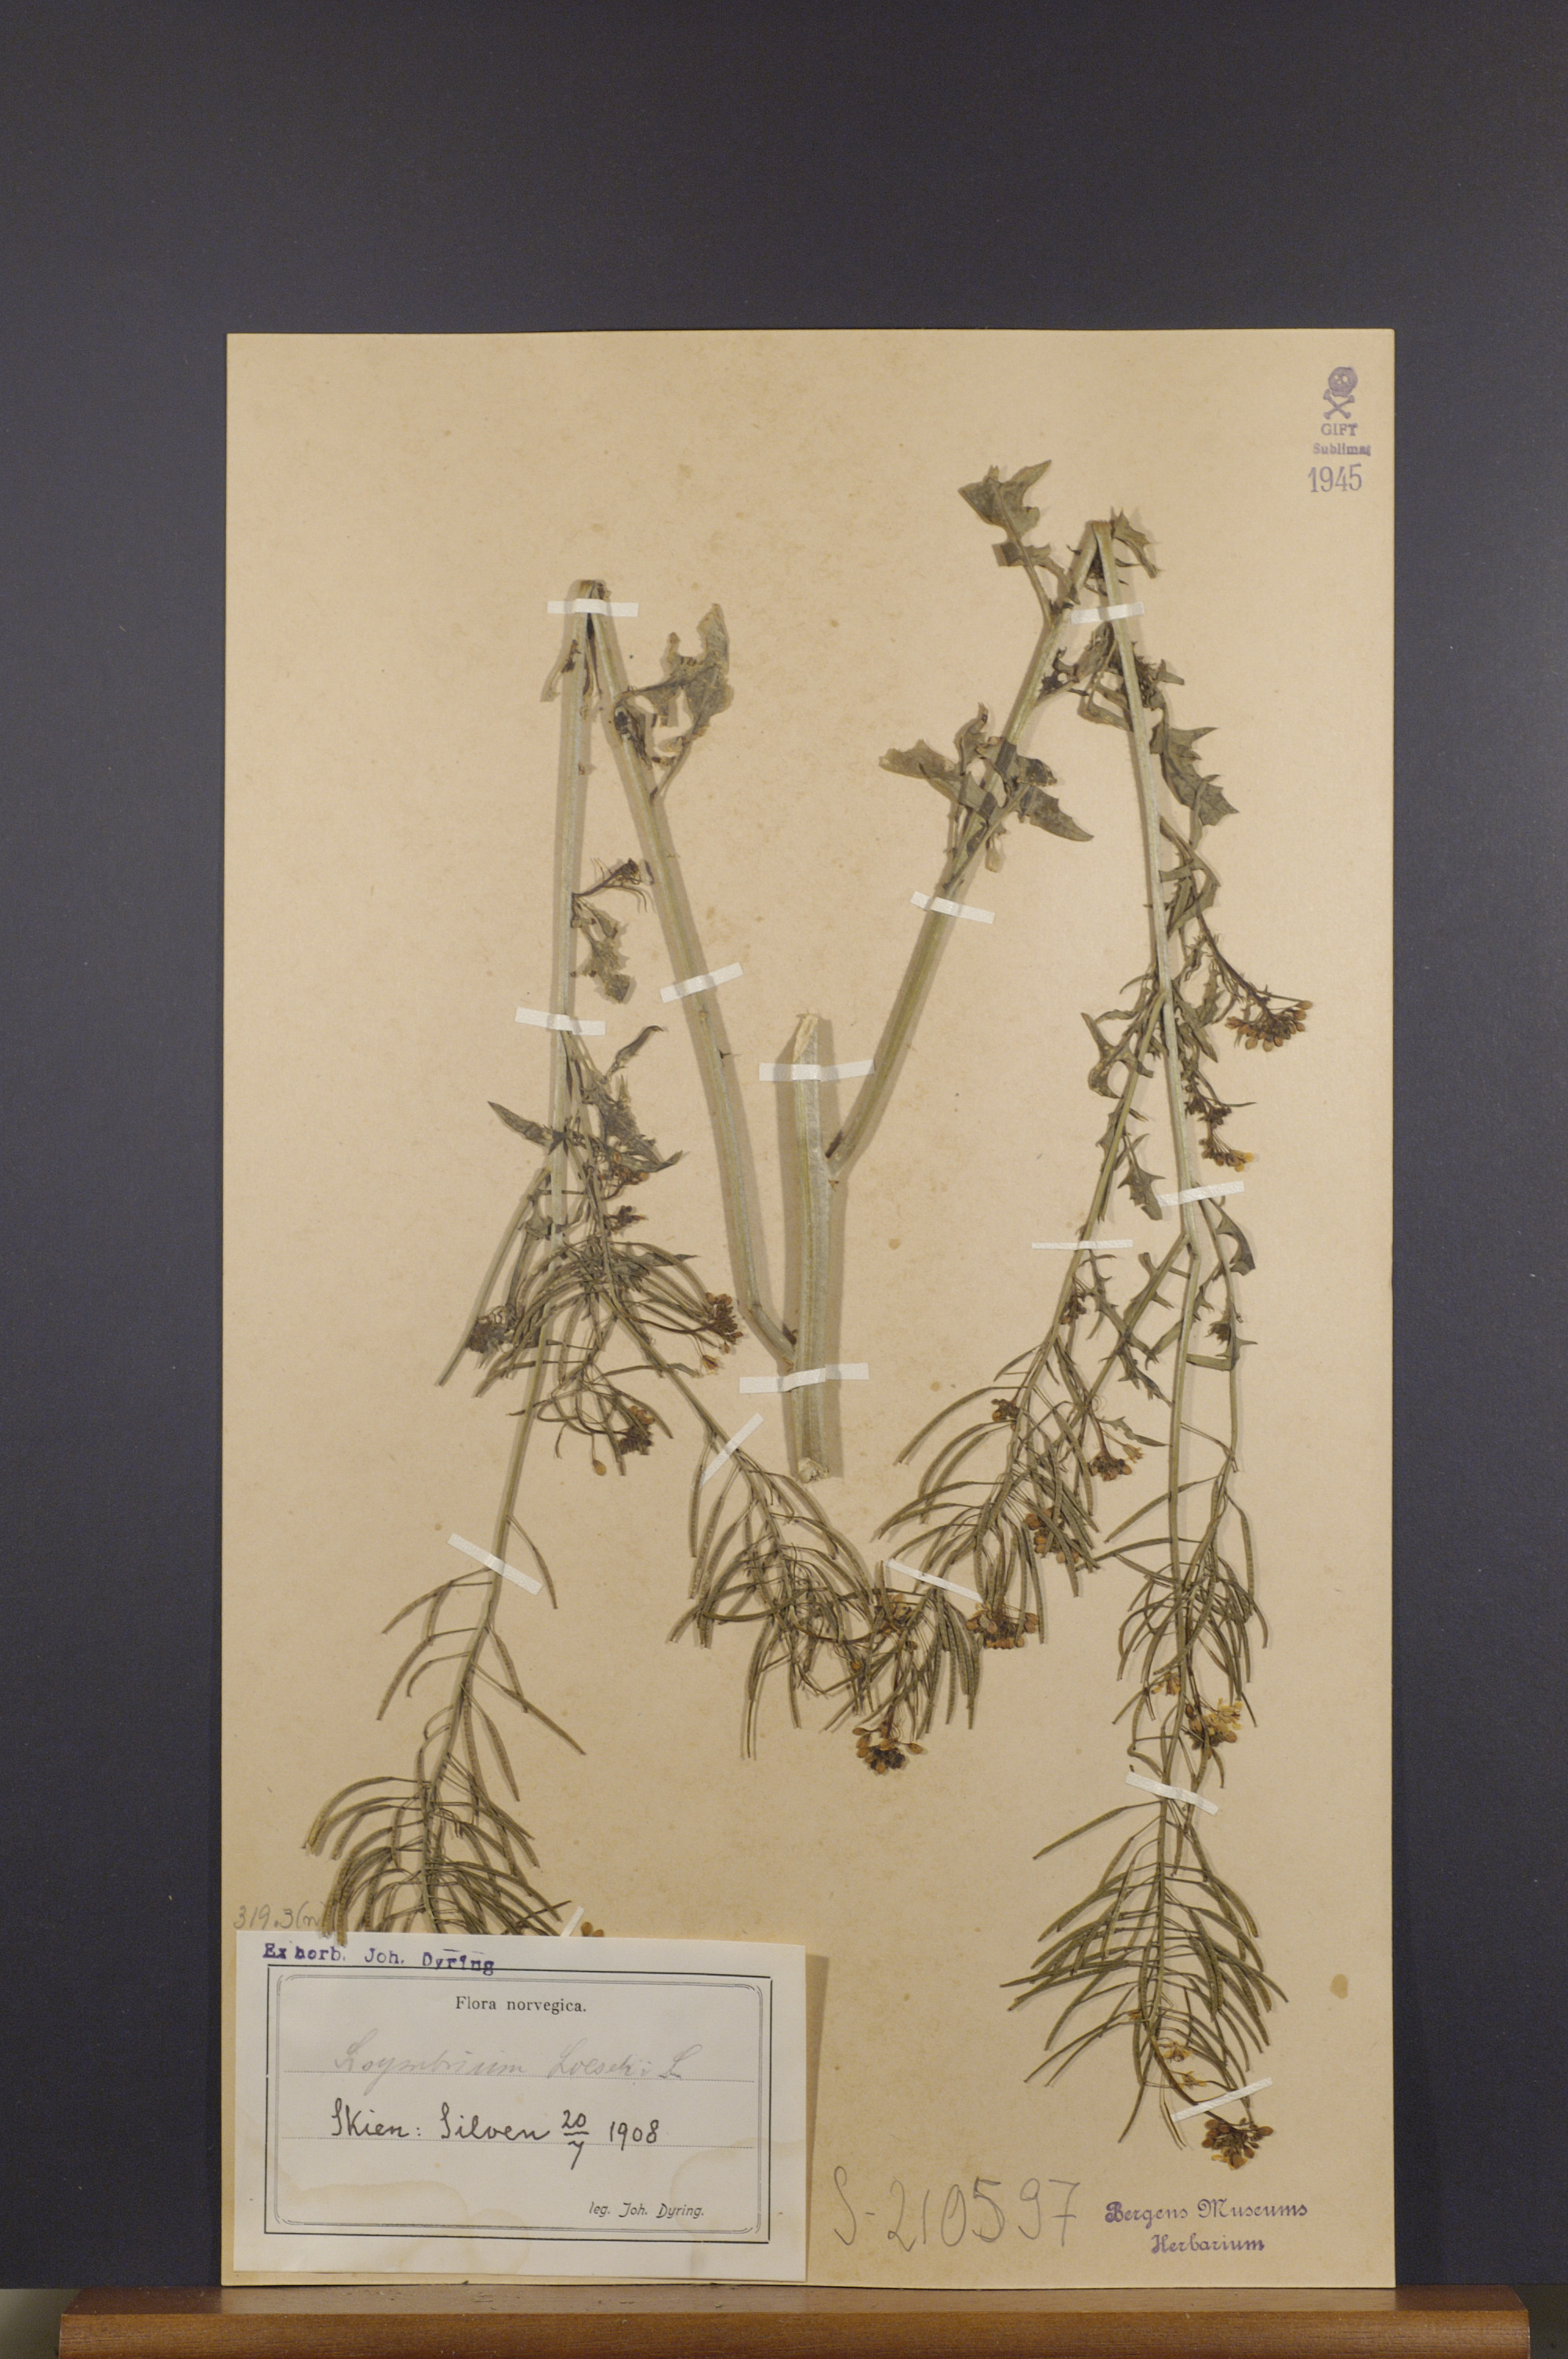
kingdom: Plantae
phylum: Tracheophyta
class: Magnoliopsida
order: Brassicales
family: Brassicaceae
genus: Sisymbrium
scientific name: Sisymbrium loeselii
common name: False london-rocket
